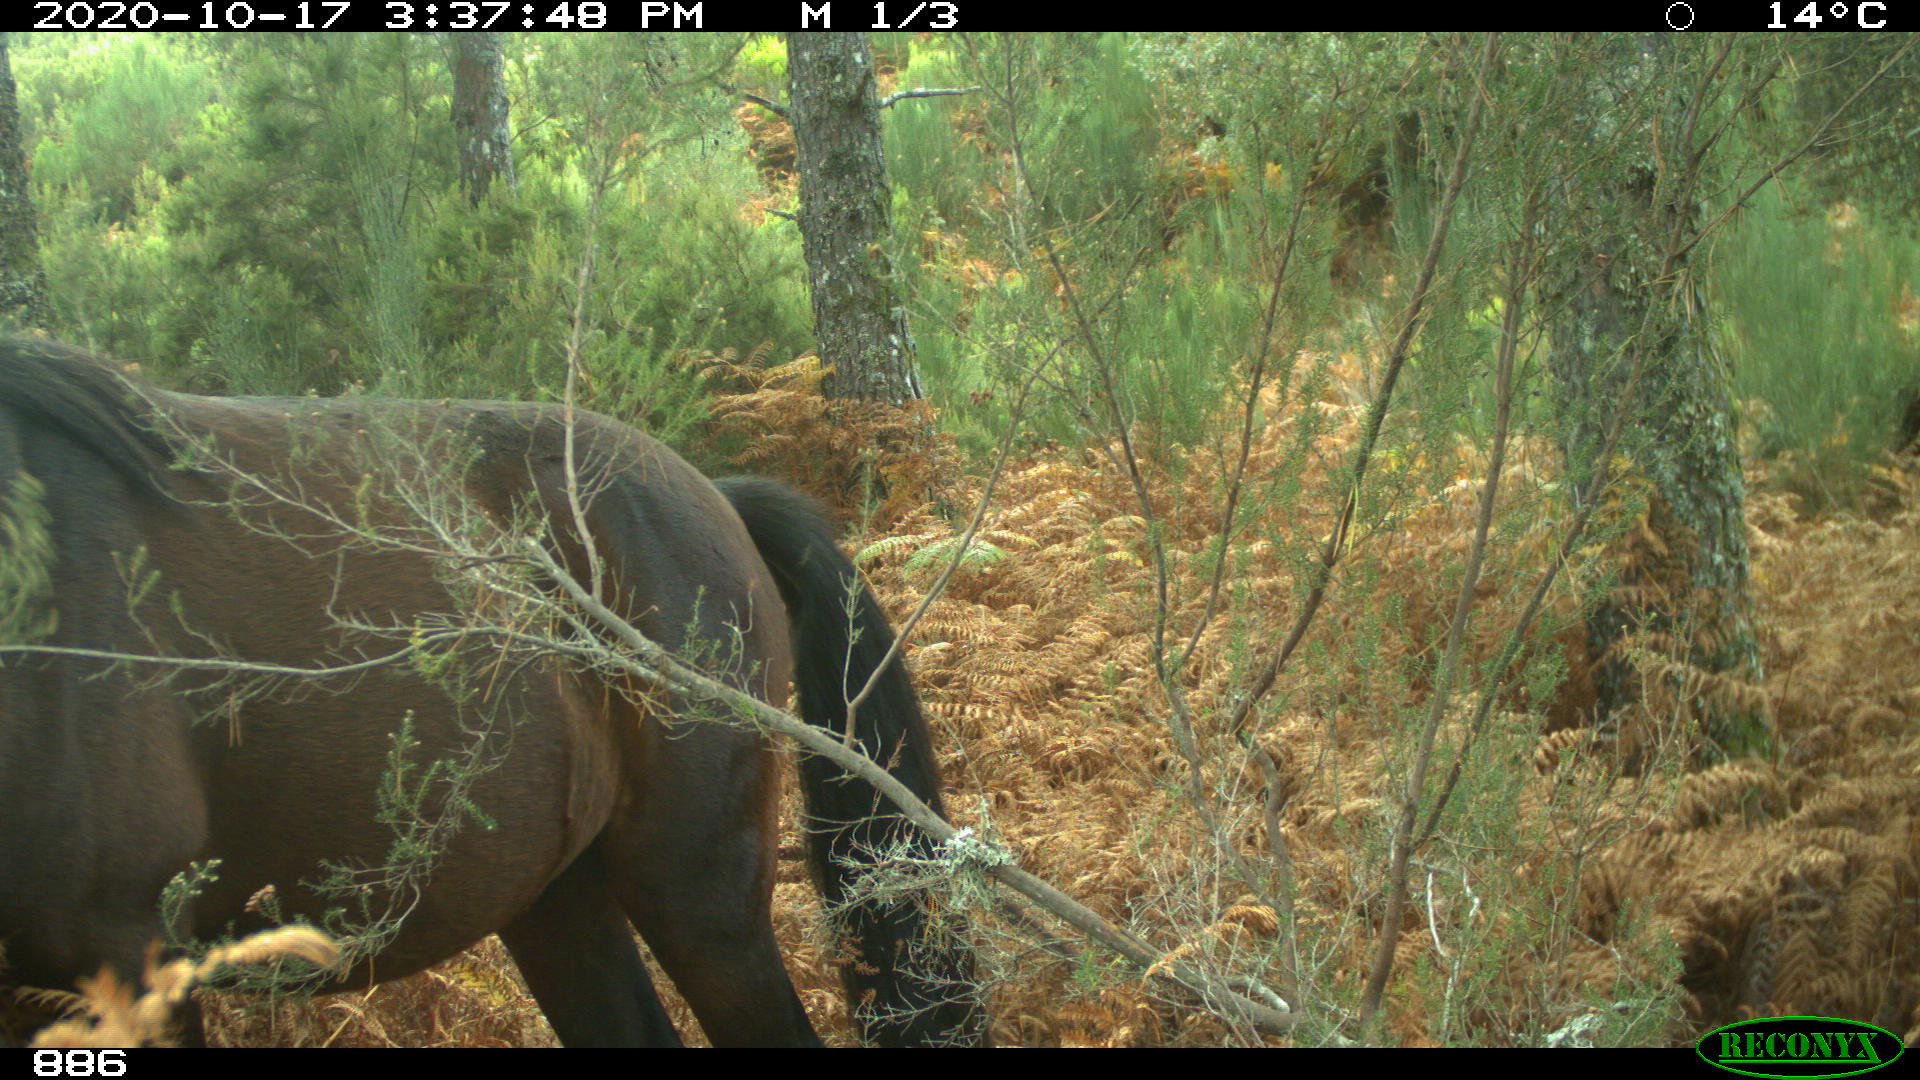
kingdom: Animalia
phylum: Chordata
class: Mammalia
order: Perissodactyla
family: Equidae
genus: Equus
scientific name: Equus caballus
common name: Horse
